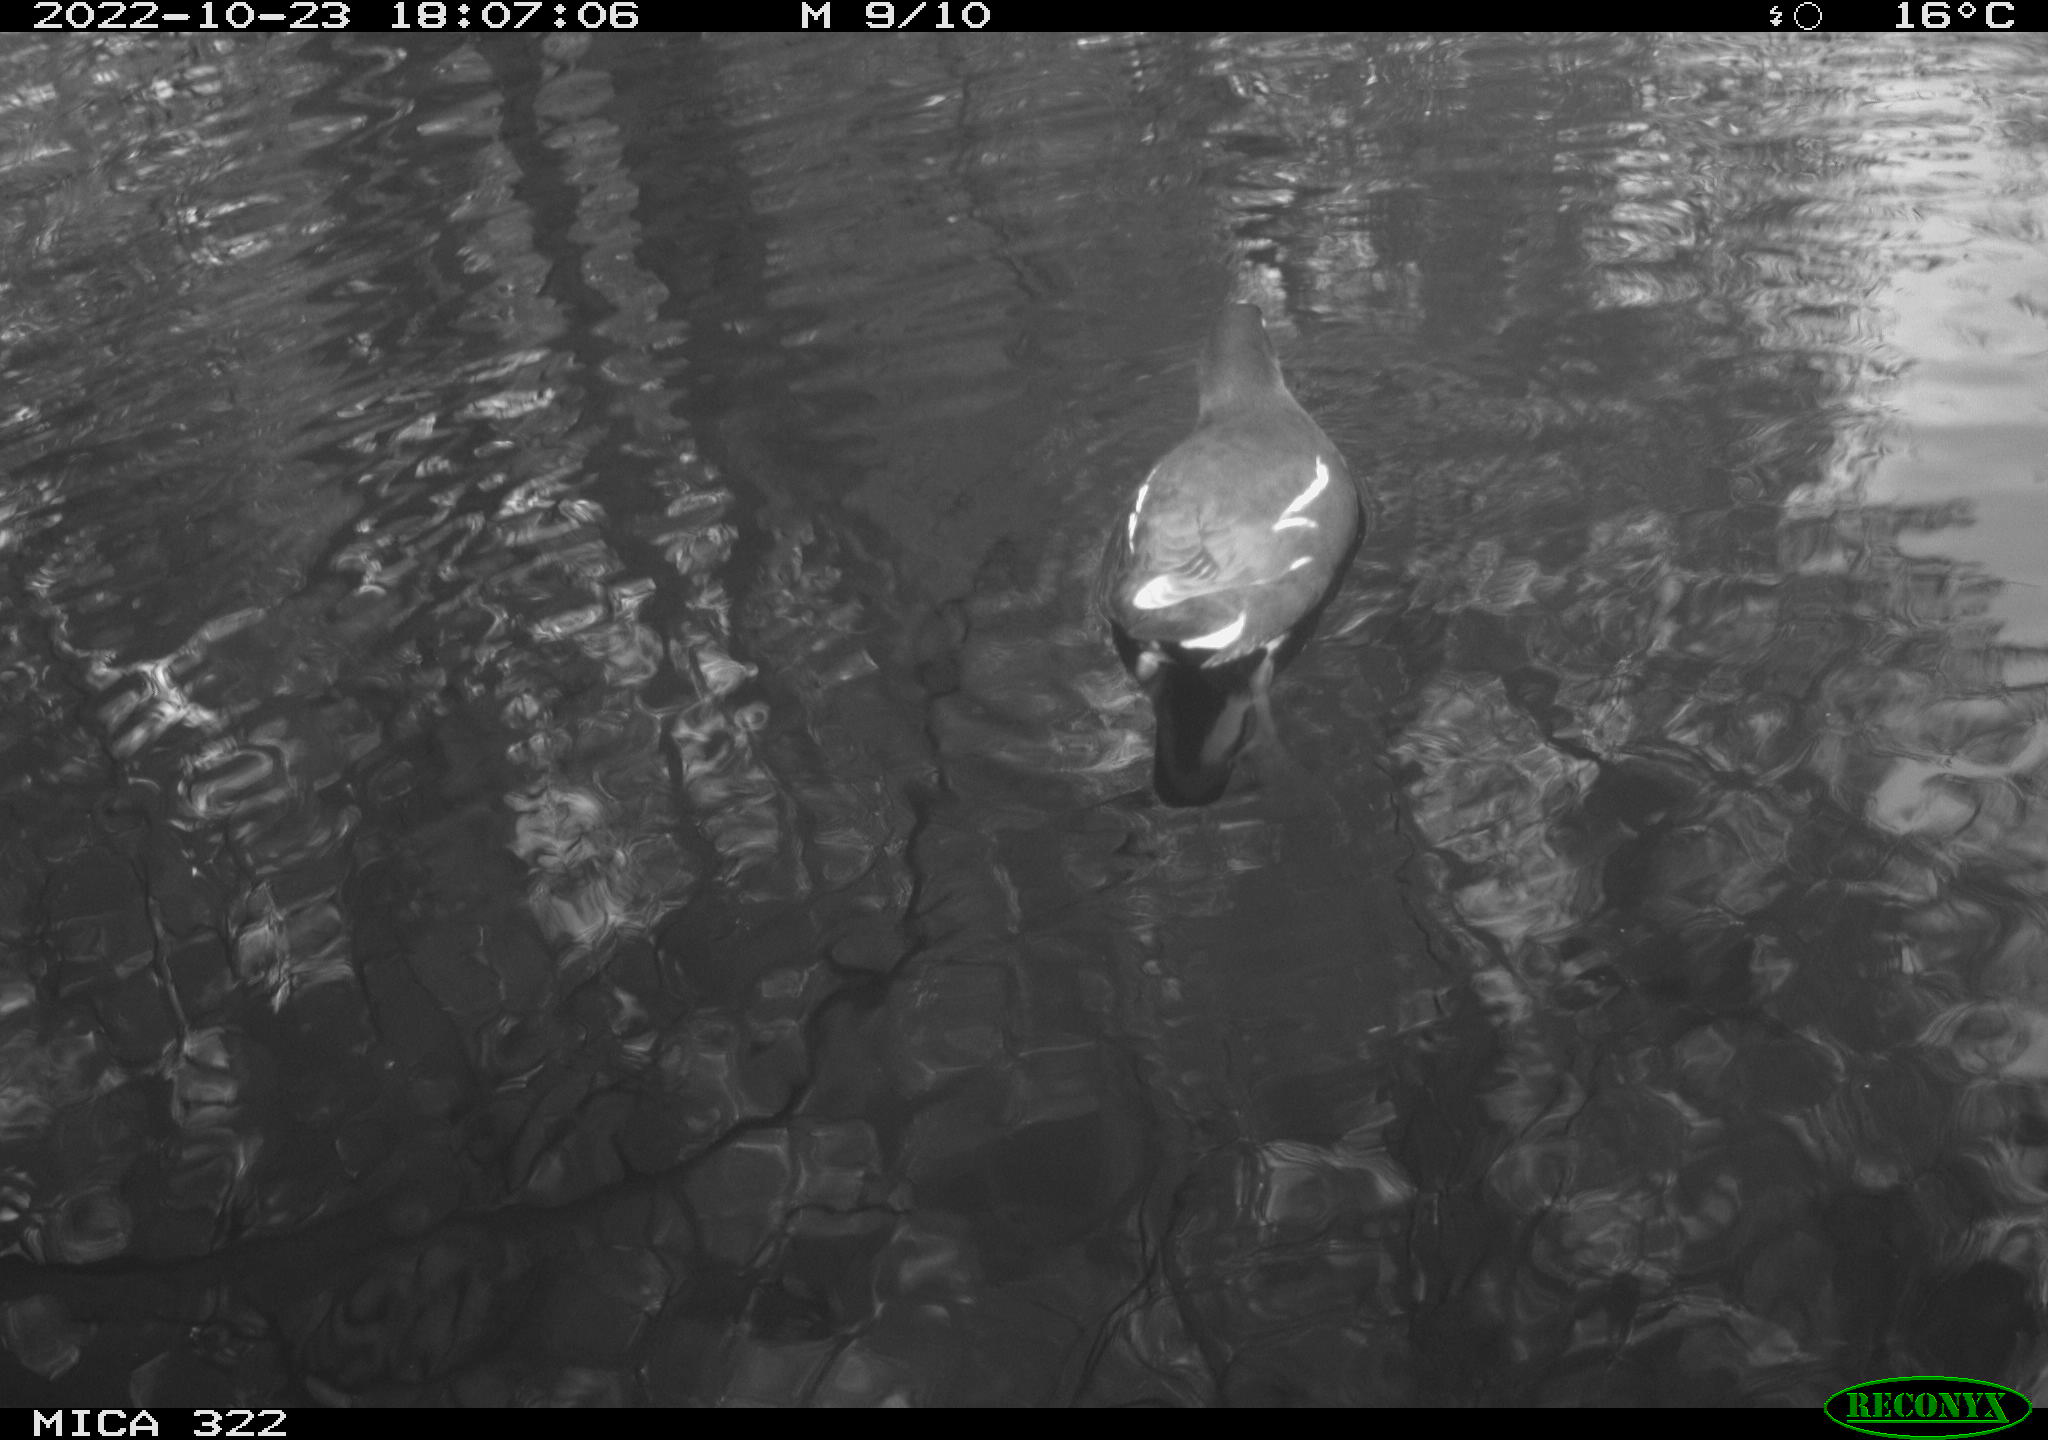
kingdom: Animalia
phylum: Chordata
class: Aves
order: Pelecaniformes
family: Ardeidae
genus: Ardea
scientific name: Ardea cinerea
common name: Grey heron
